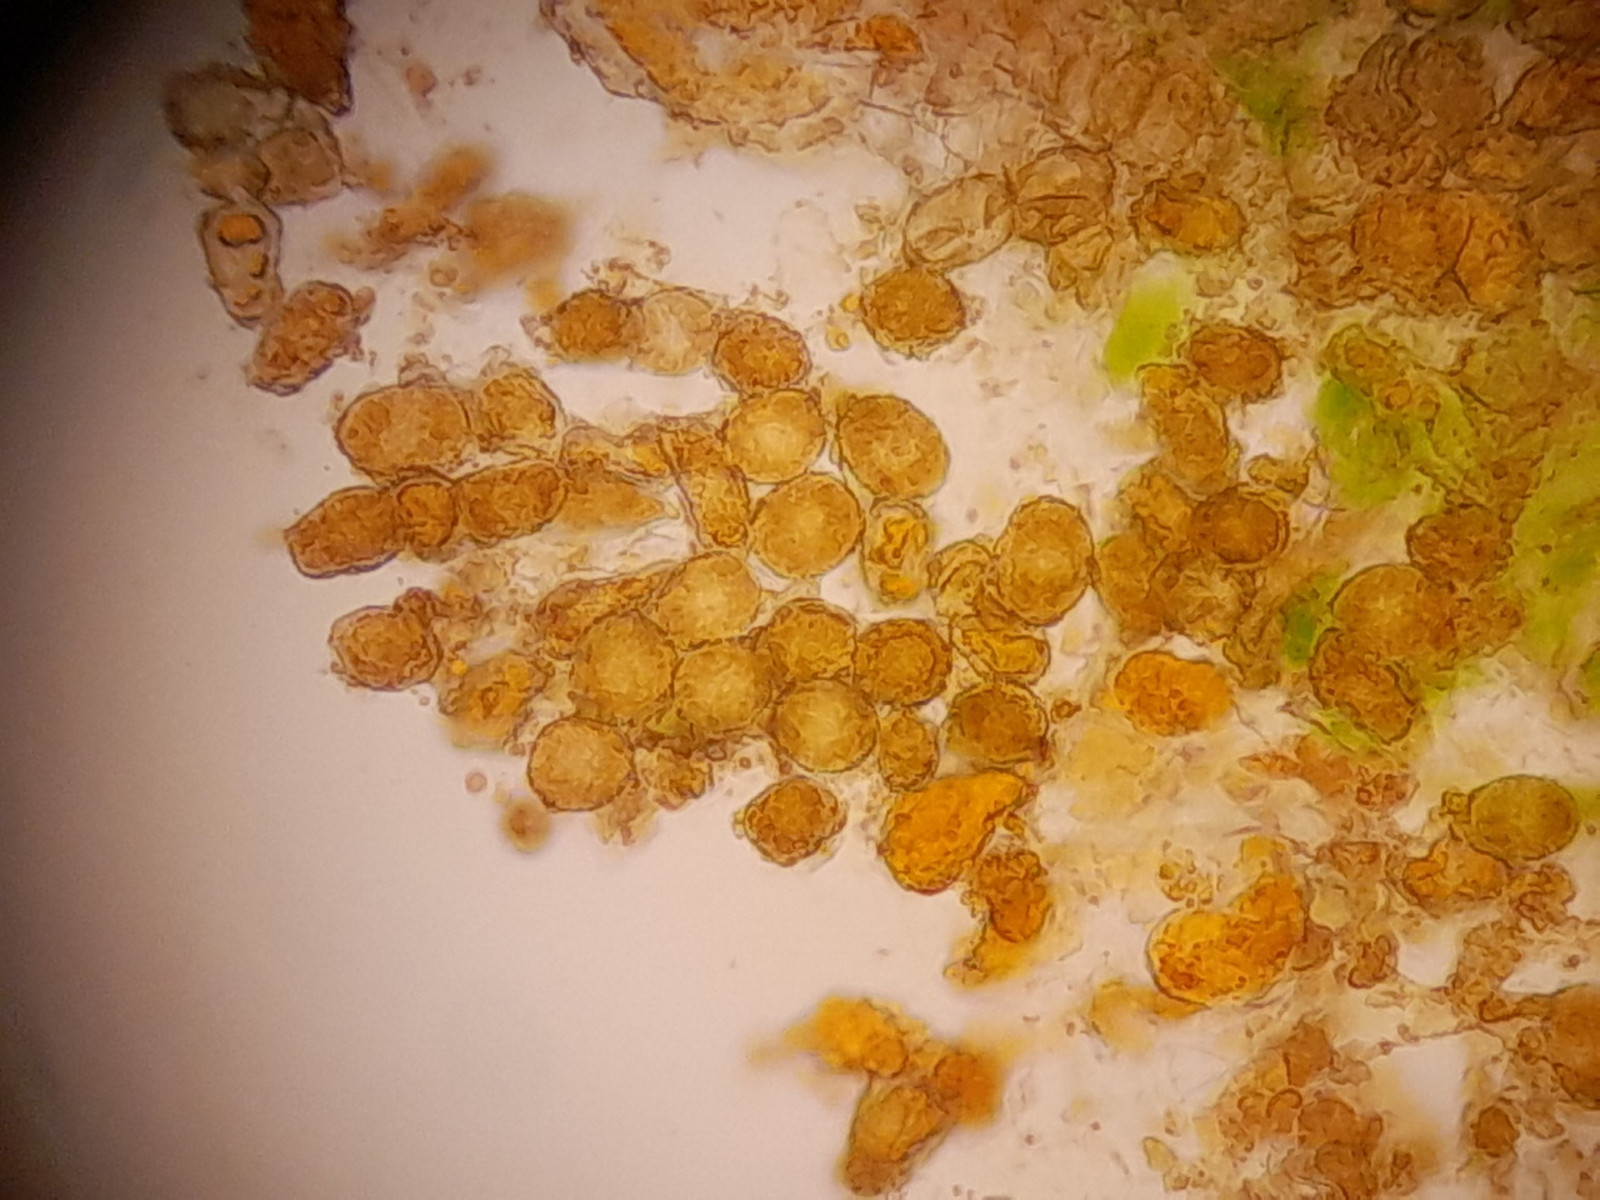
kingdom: Fungi
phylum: Basidiomycota
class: Pucciniomycetes
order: Pucciniales
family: Coleosporiaceae
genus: Coleosporium
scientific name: Coleosporium tussilaginis
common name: almindelig fyrrenålerust
